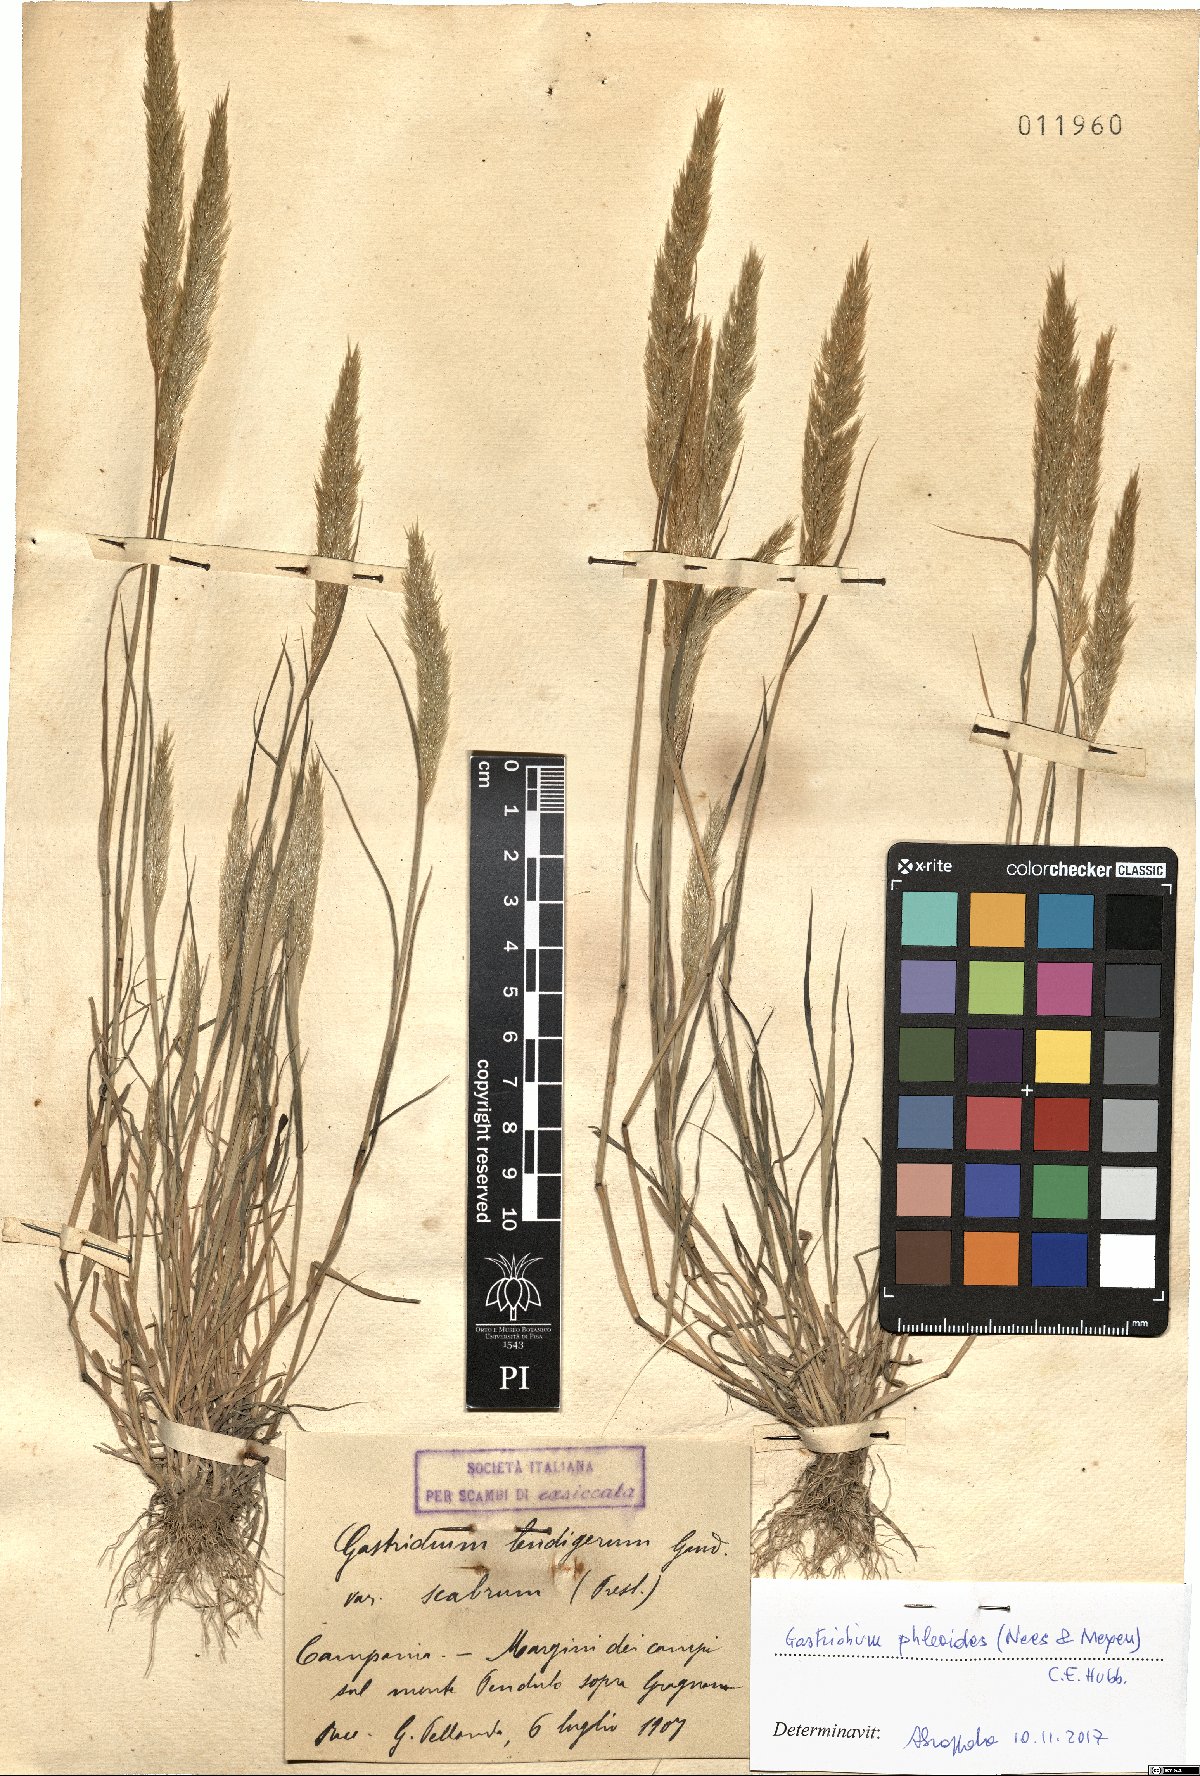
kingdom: Plantae
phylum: Tracheophyta
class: Liliopsida
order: Poales
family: Poaceae
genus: Gastridium
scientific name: Gastridium phleoides
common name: Nit grass
